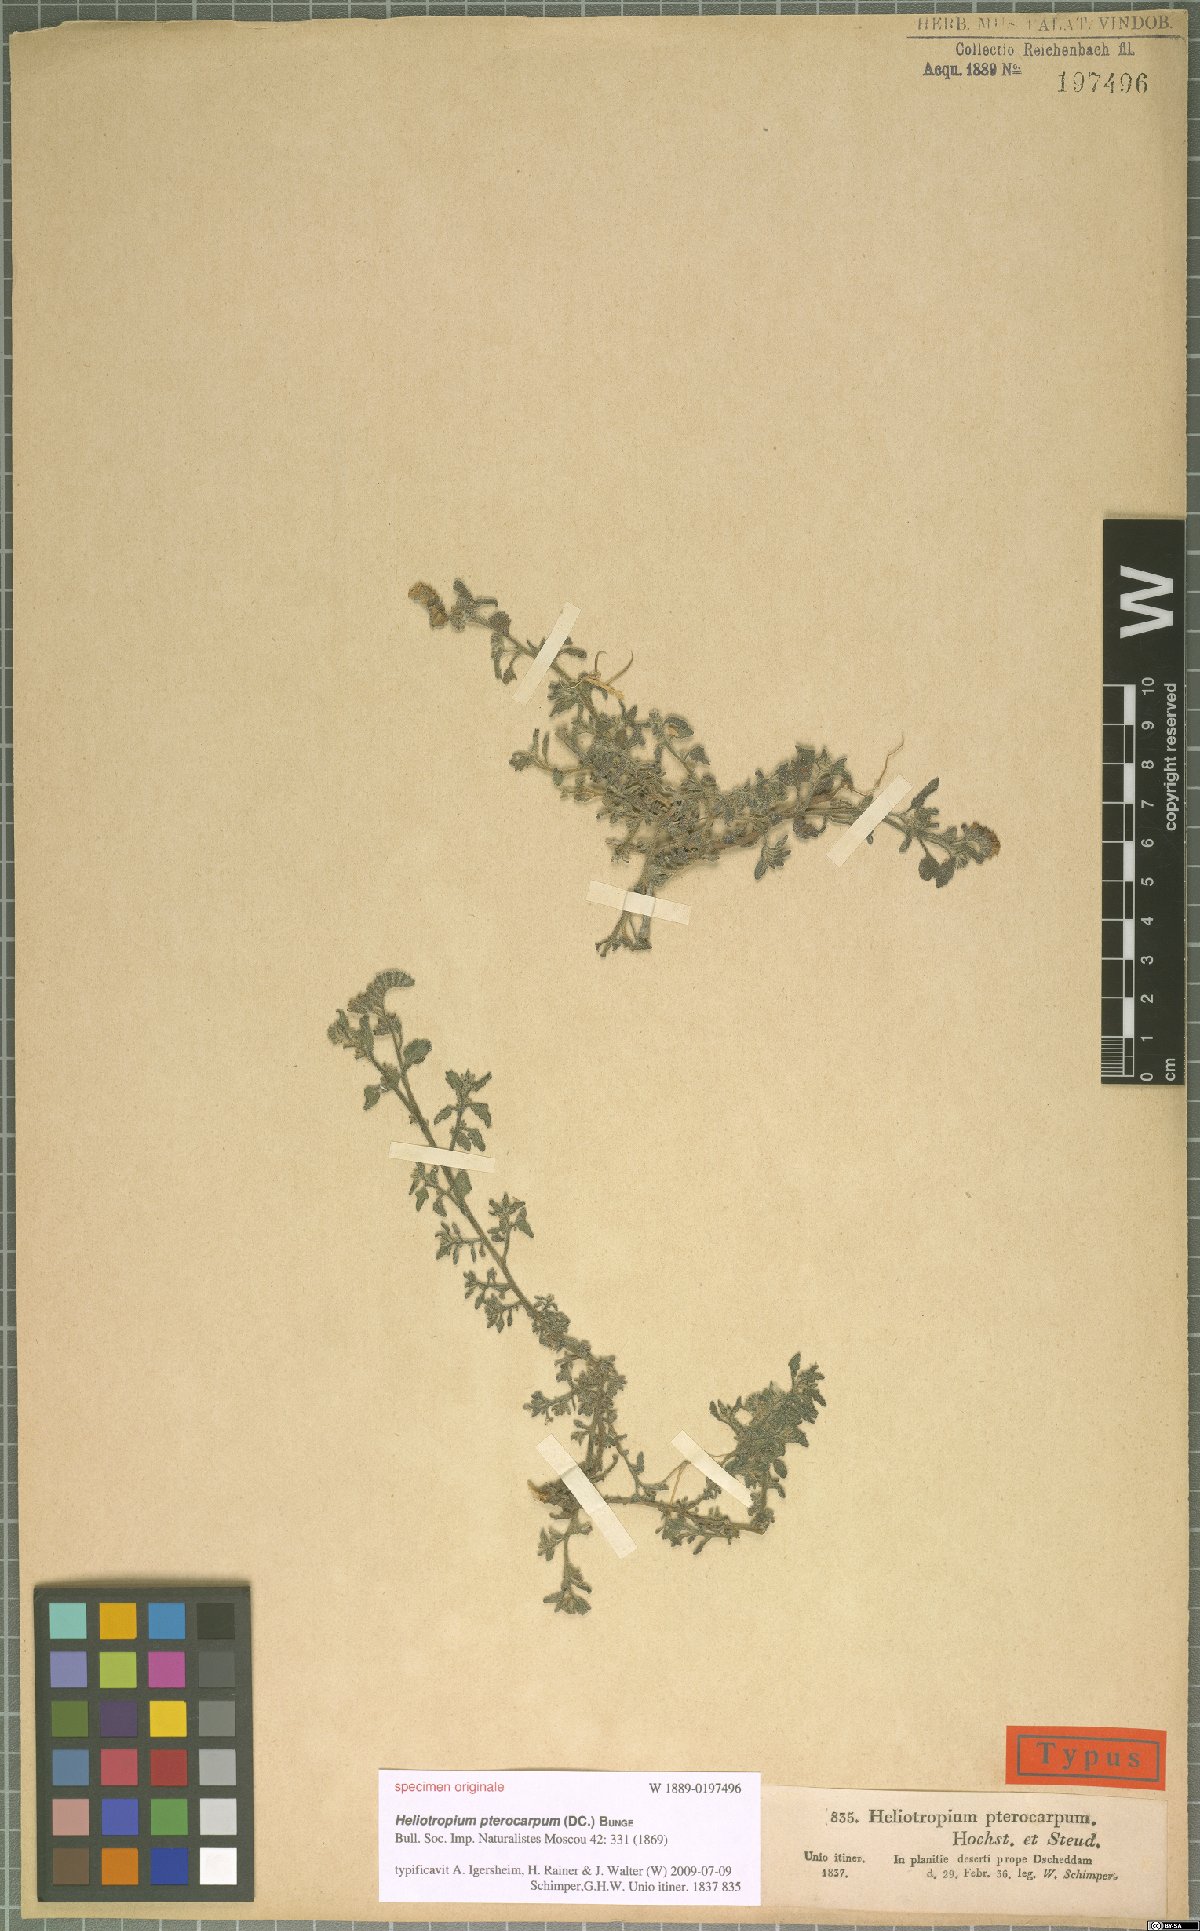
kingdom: Plantae
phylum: Tracheophyta
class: Magnoliopsida
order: Boraginales
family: Heliotropiaceae
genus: Heliotropium
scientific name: Heliotropium pterocarpum
